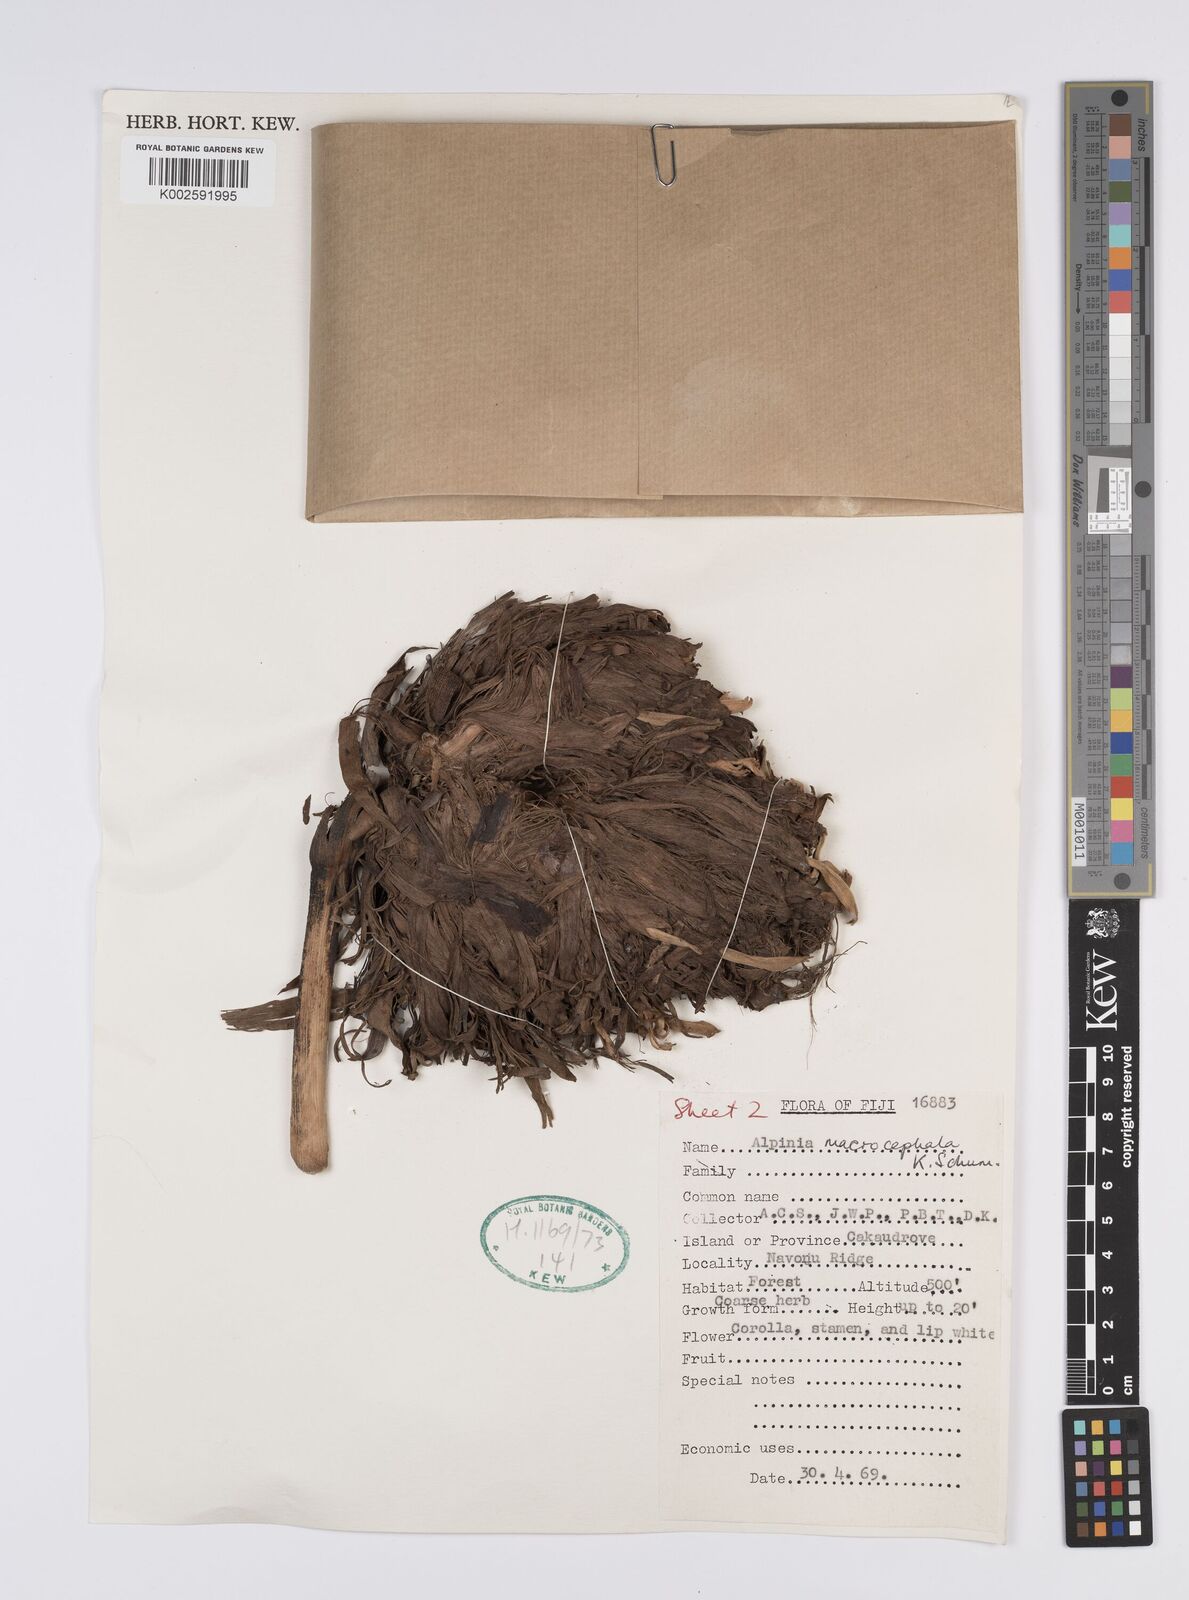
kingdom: Plantae
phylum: Tracheophyta
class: Liliopsida
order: Zingiberales
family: Zingiberaceae
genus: Alpinia
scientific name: Alpinia macrocephala
